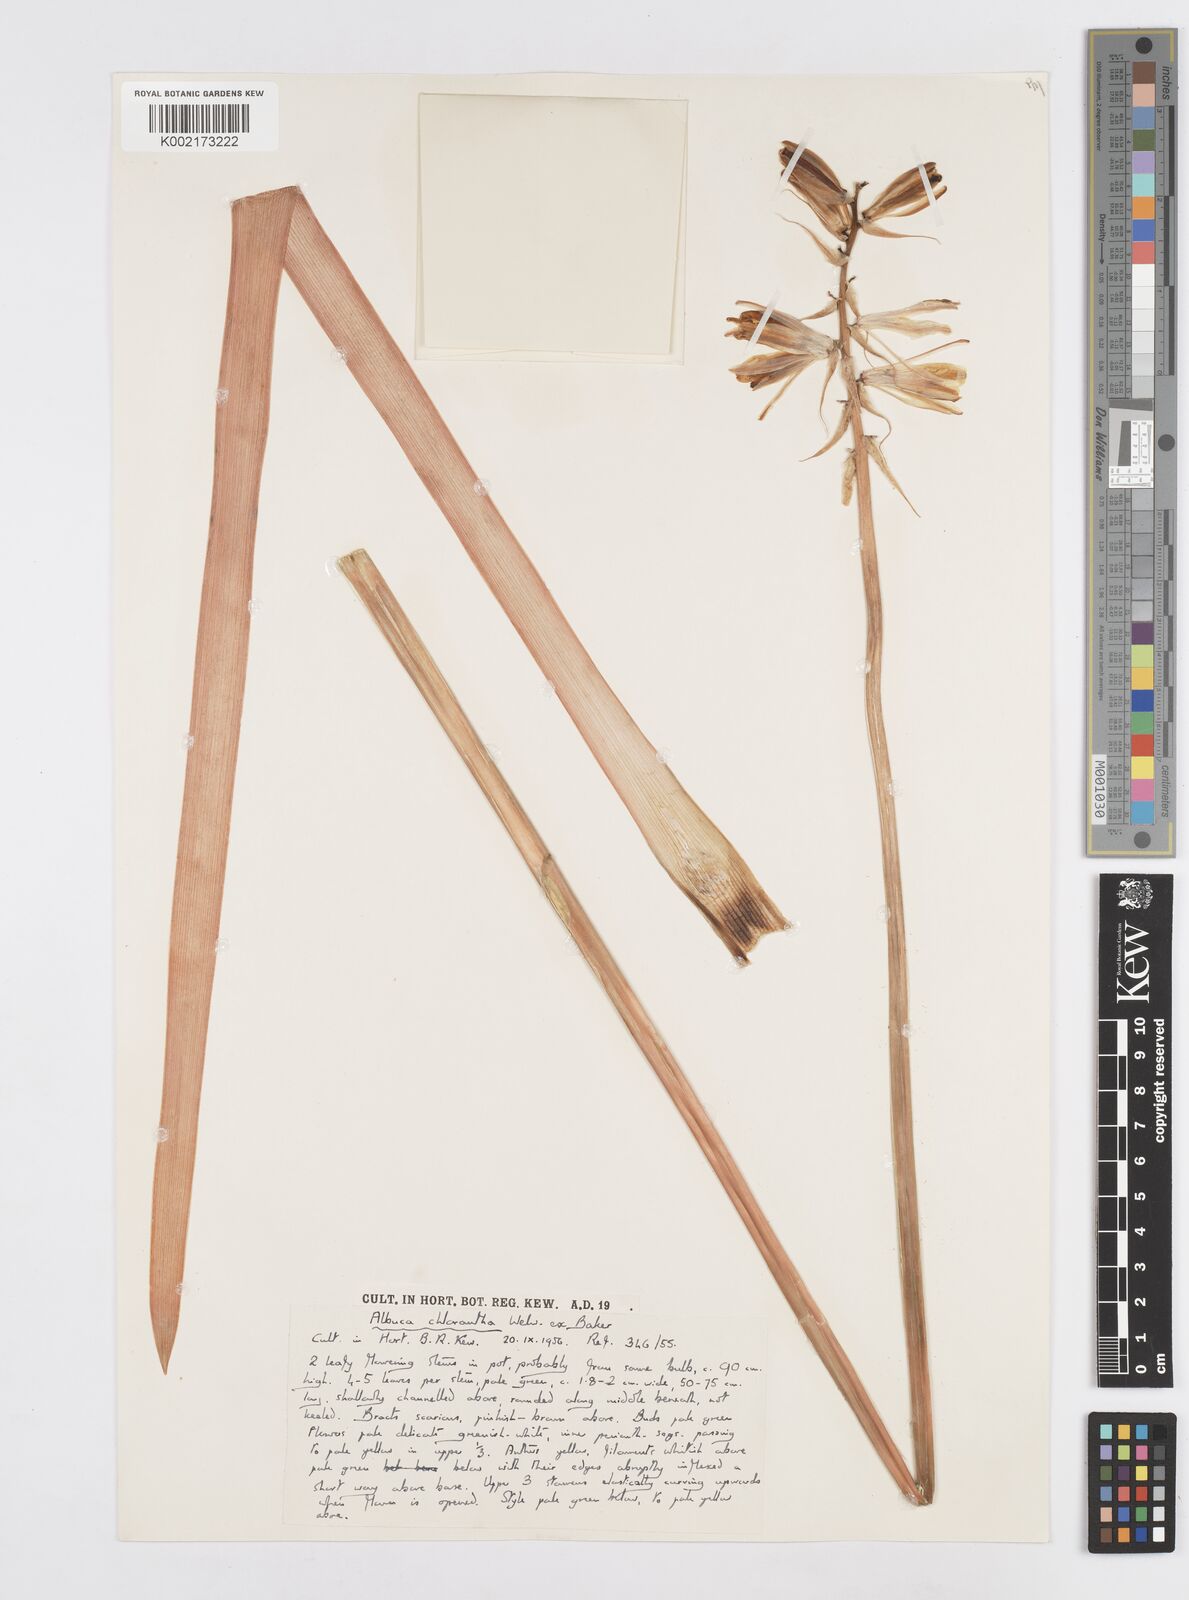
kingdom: Plantae
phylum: Tracheophyta
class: Liliopsida
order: Asparagales
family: Asparagaceae
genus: Albuca
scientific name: Albuca abyssinica
